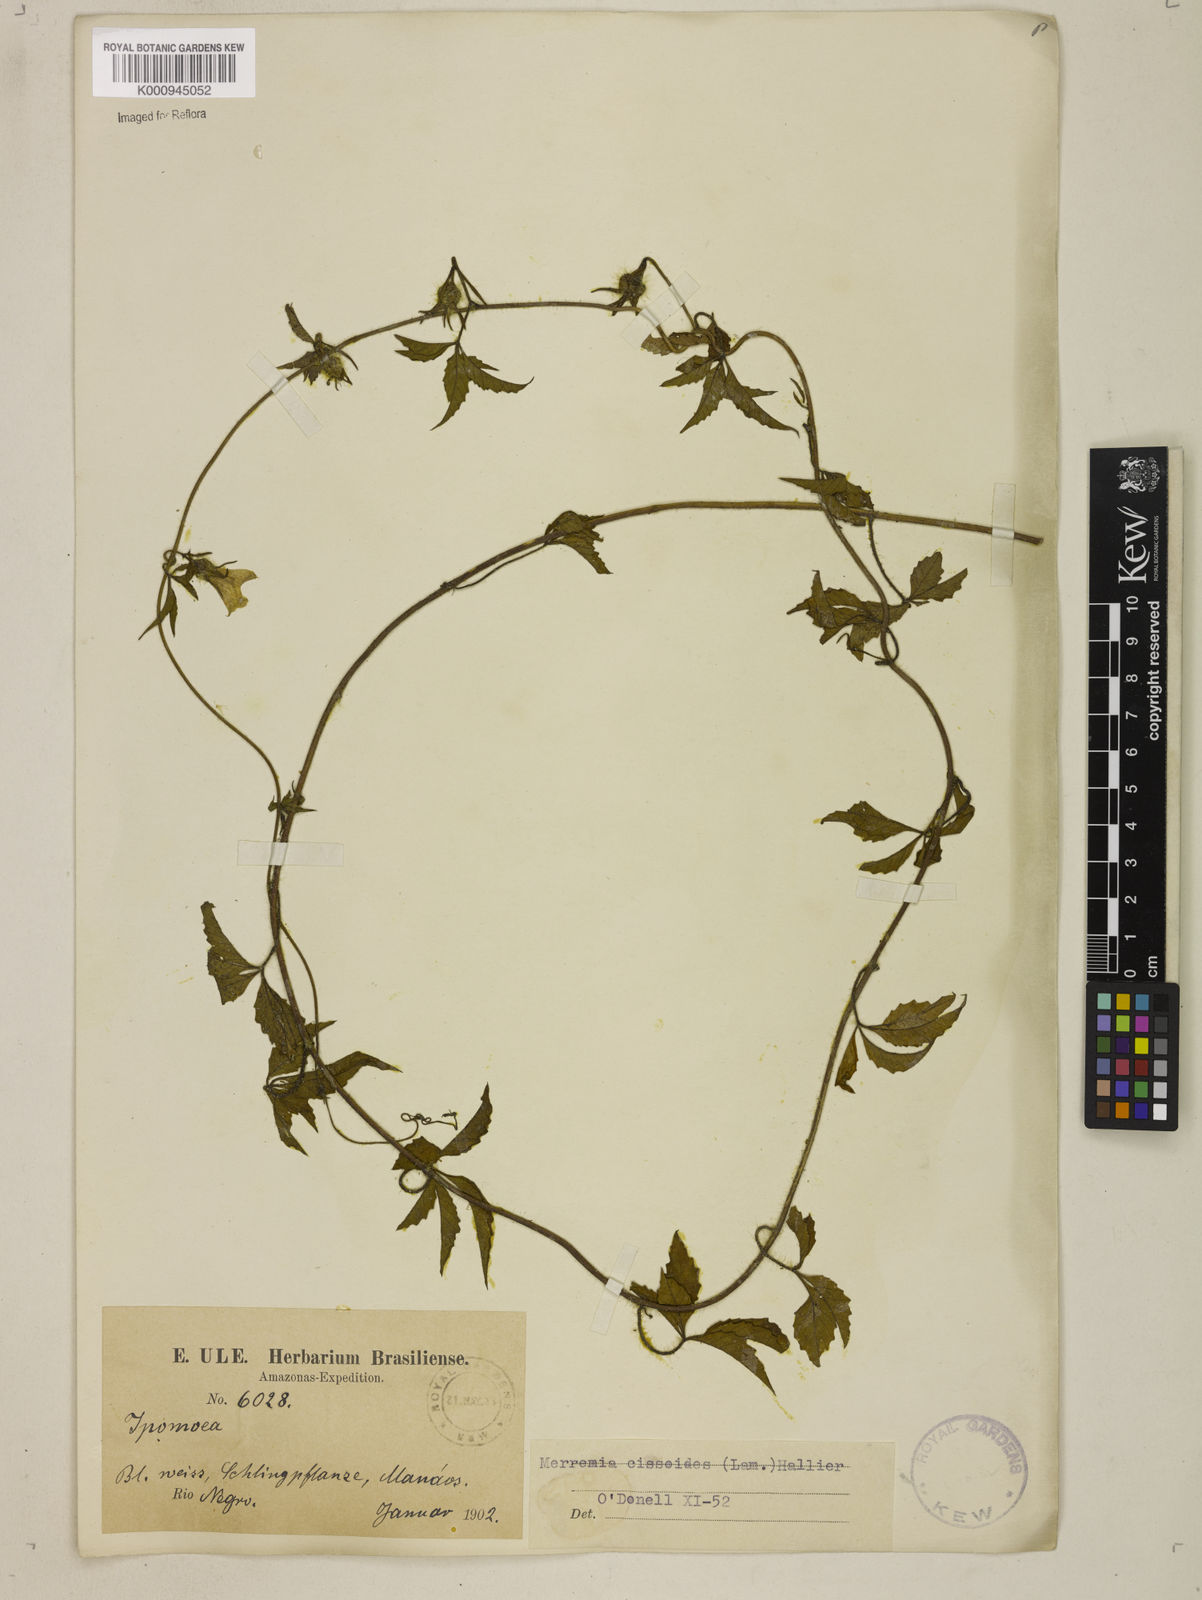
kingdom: Plantae
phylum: Tracheophyta
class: Magnoliopsida
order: Solanales
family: Convolvulaceae
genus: Distimake
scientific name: Distimake cissoides
